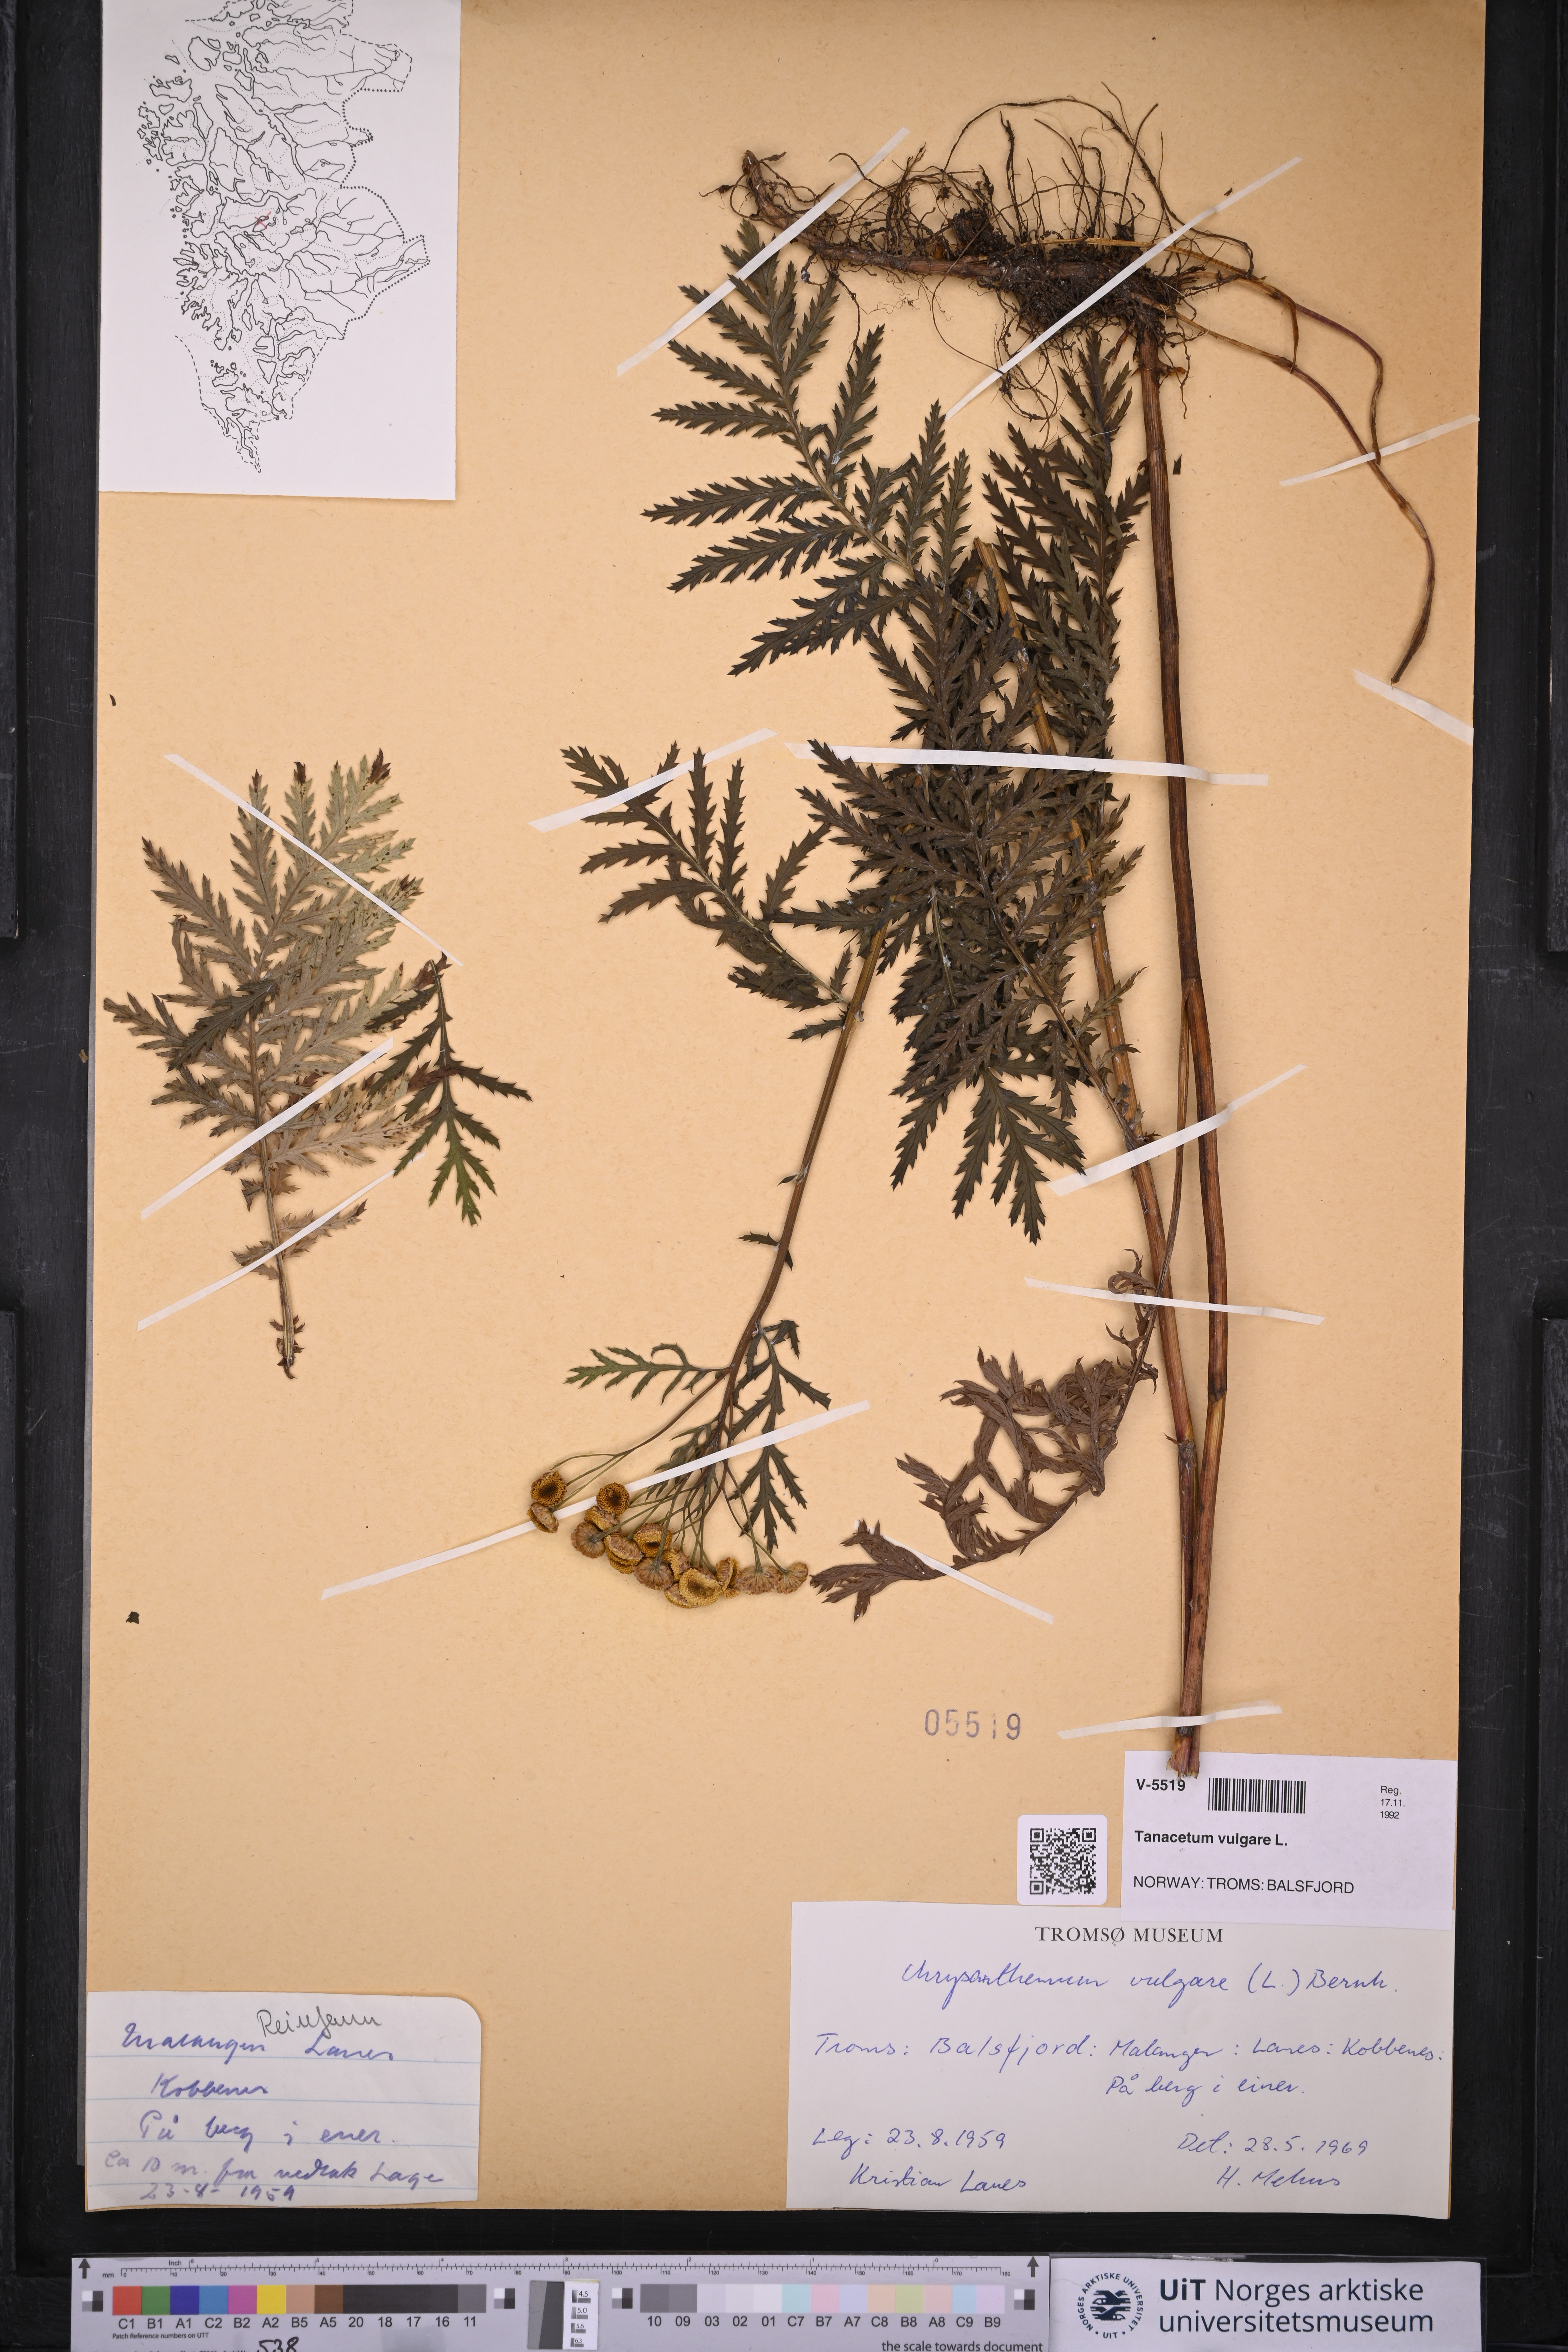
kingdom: Plantae
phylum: Tracheophyta
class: Magnoliopsida
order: Asterales
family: Asteraceae
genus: Tanacetum
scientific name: Tanacetum vulgare
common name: Common tansy
